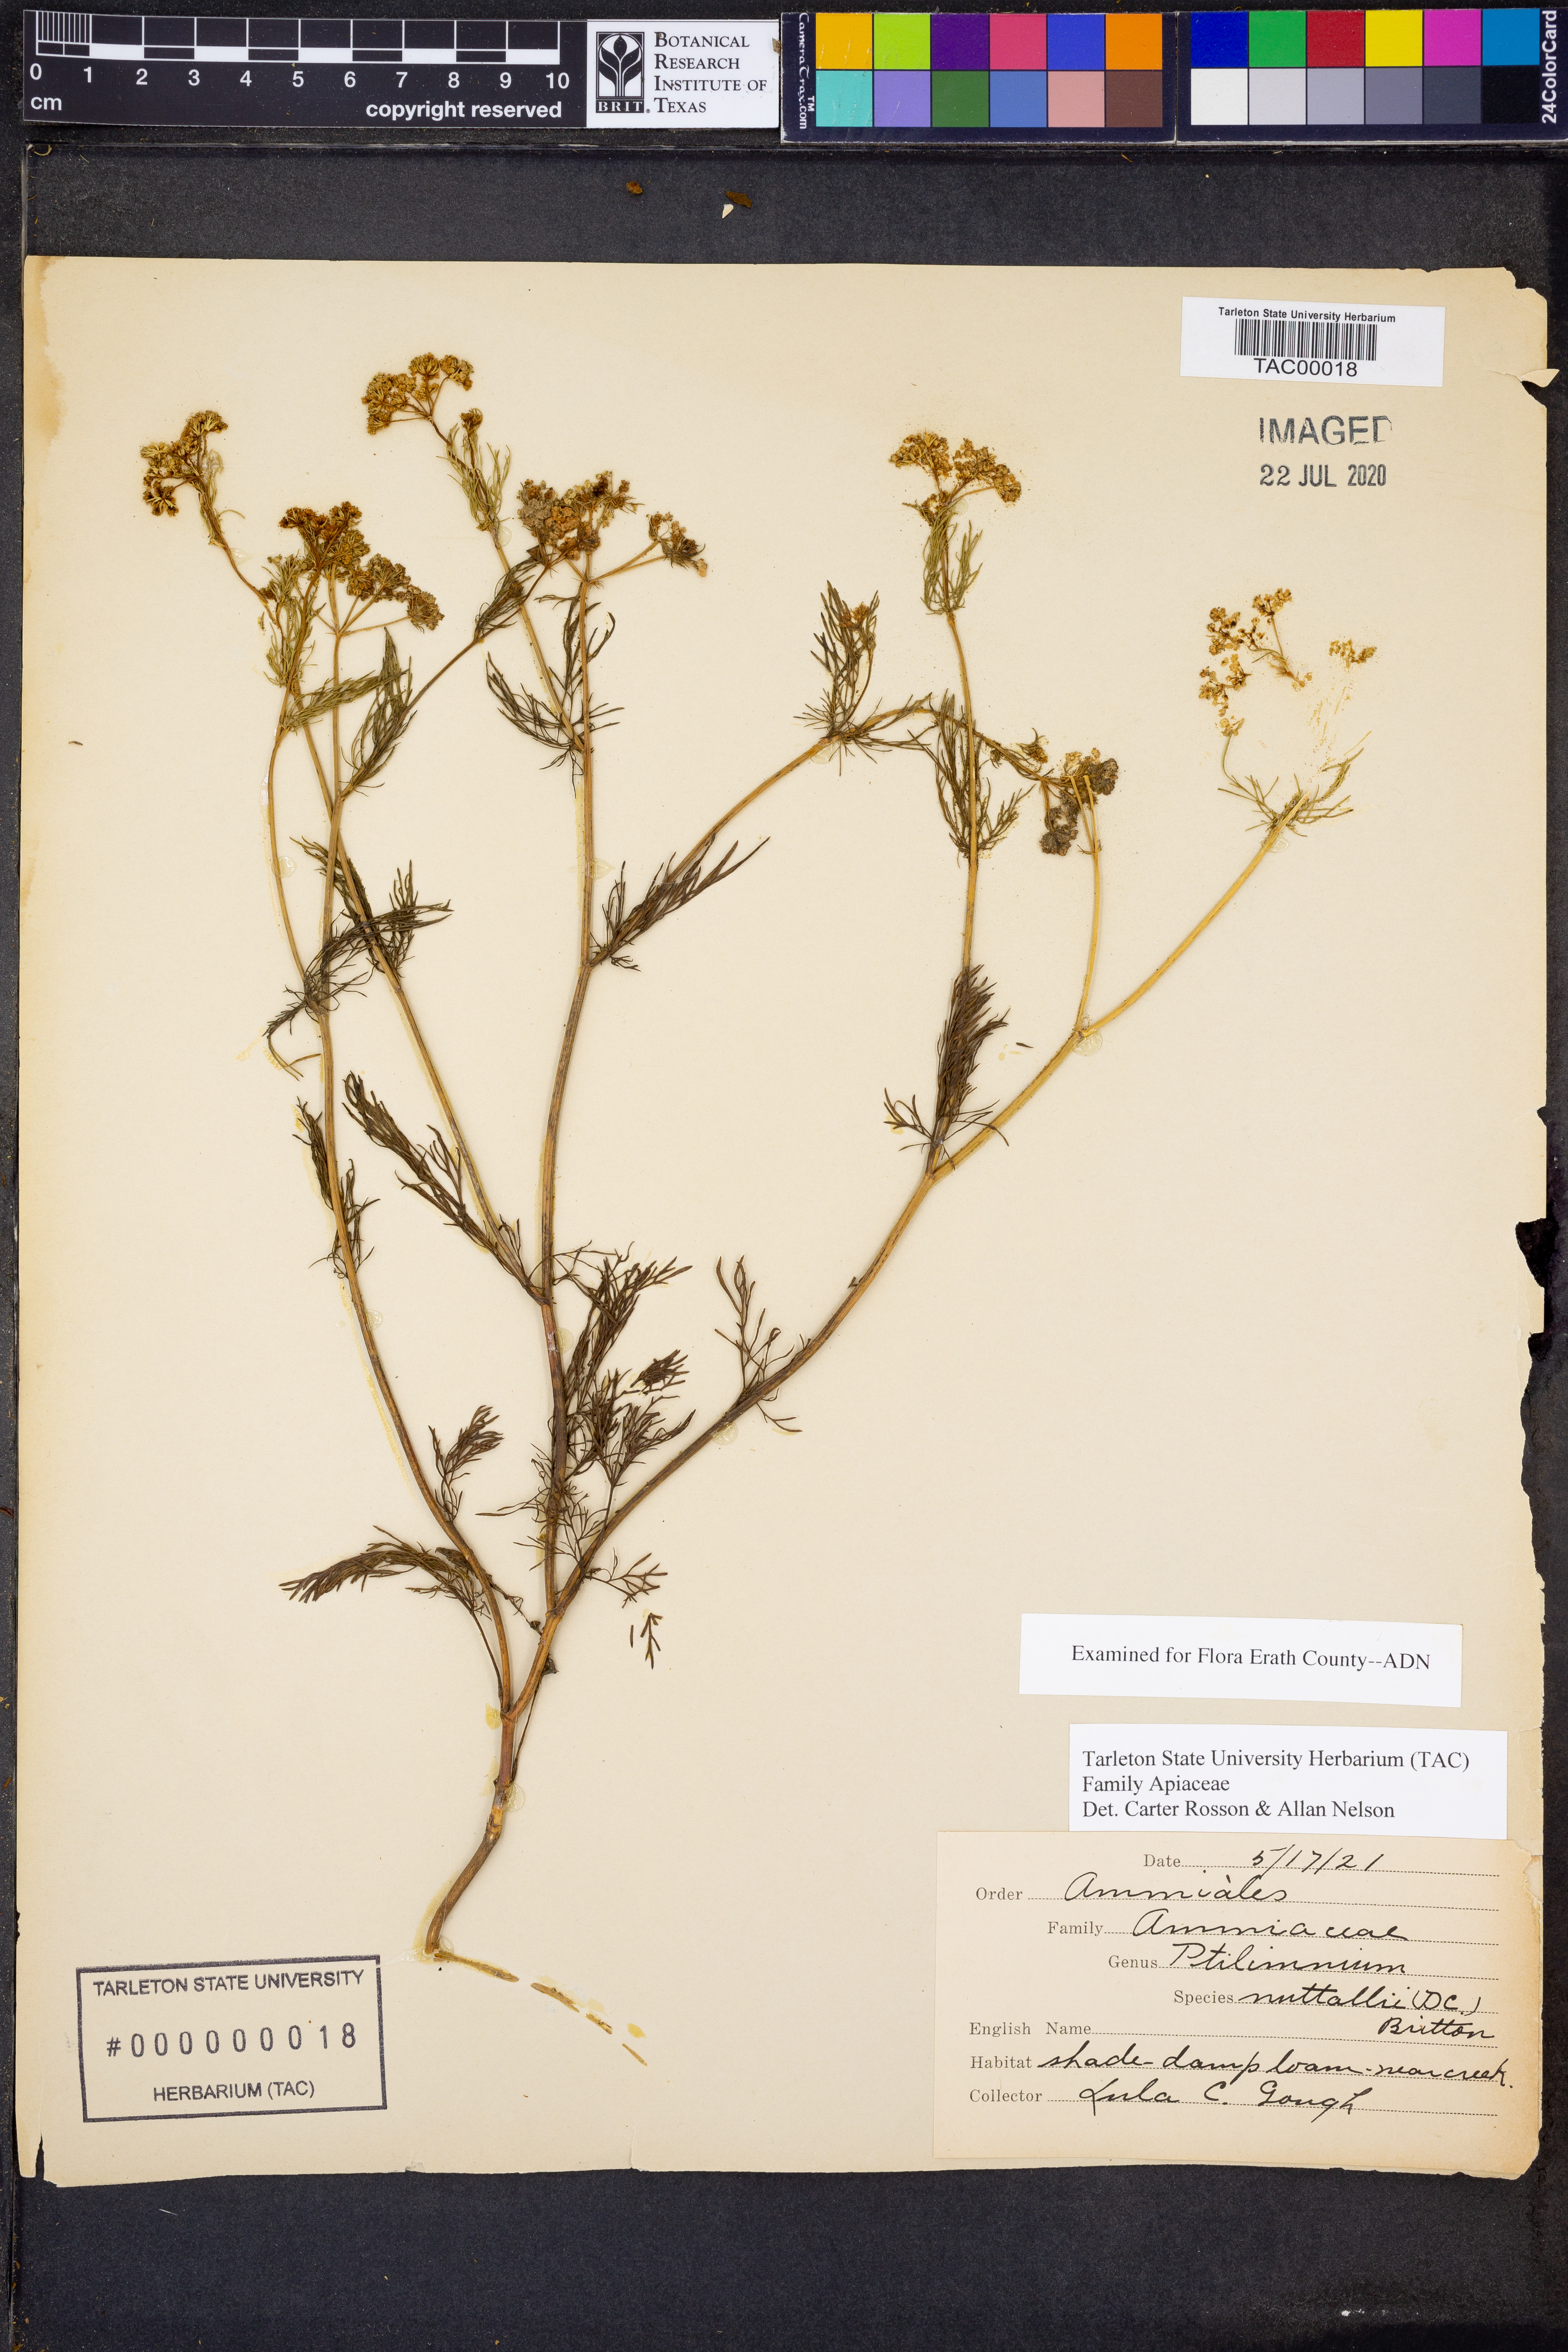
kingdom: Plantae
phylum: Tracheophyta
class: Magnoliopsida
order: Apiales
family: Apiaceae
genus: Ptilimnium
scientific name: Ptilimnium nuttallii
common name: Ozark bishop's-weed
